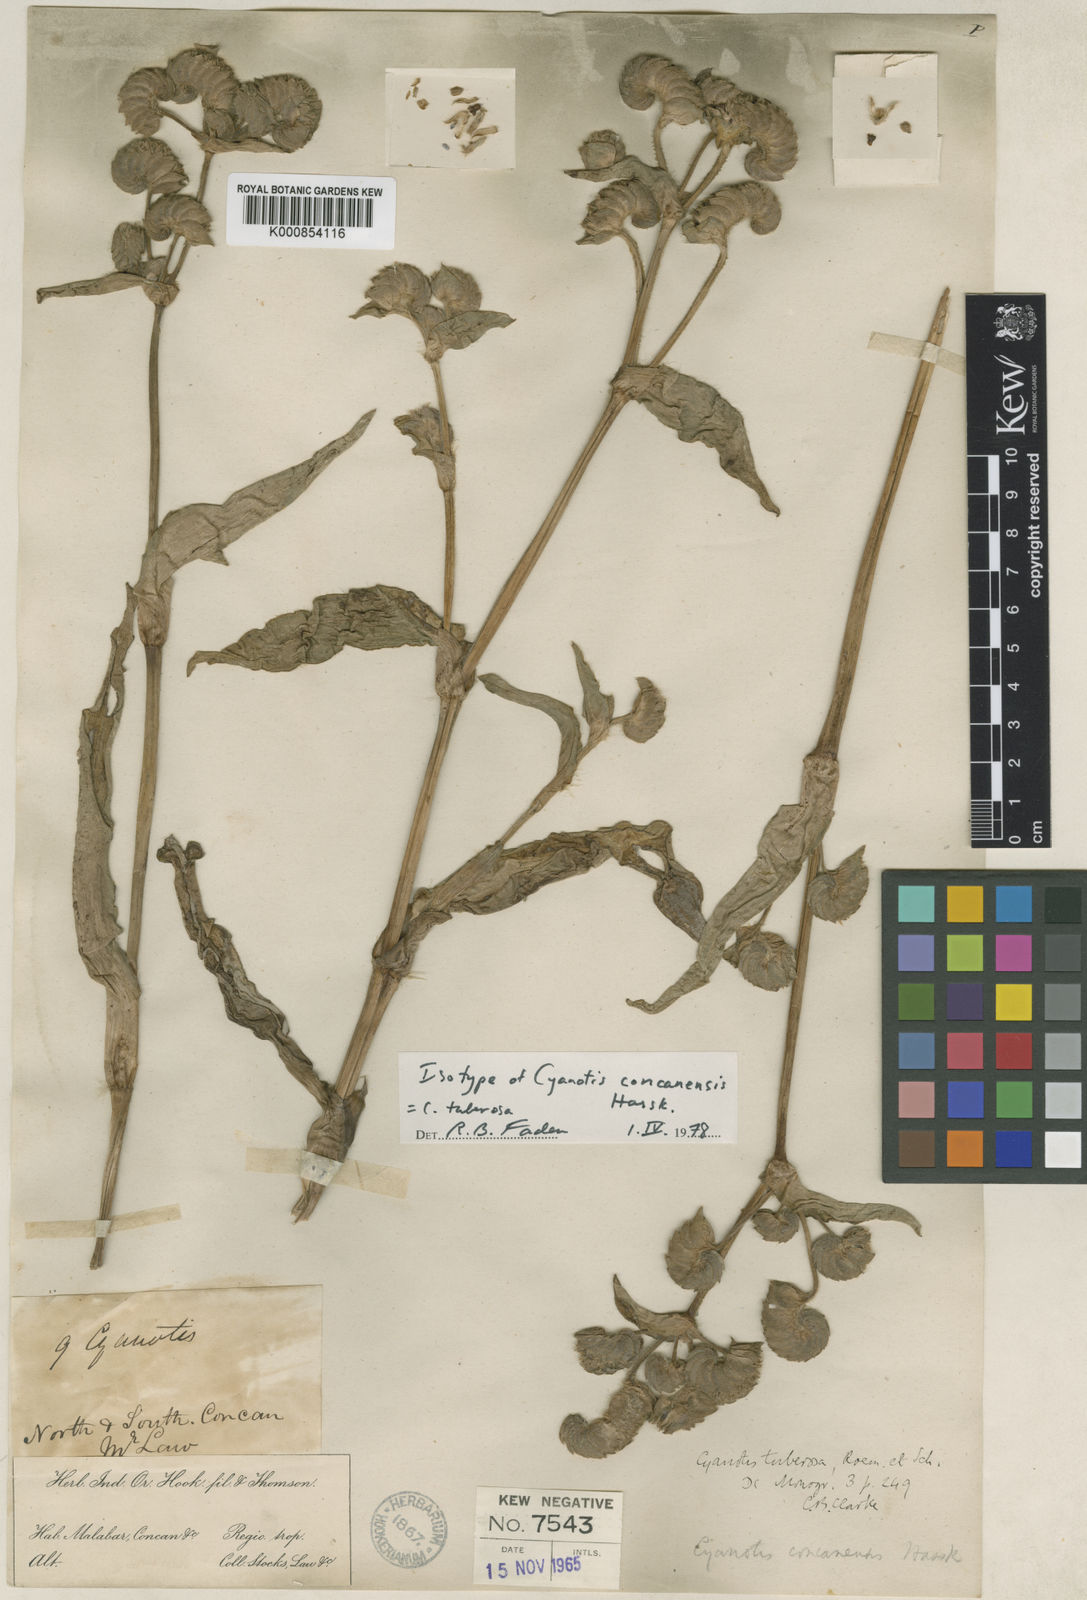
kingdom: Plantae
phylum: Tracheophyta
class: Liliopsida
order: Commelinales
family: Commelinaceae
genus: Cyanotis
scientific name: Cyanotis tuberosa
